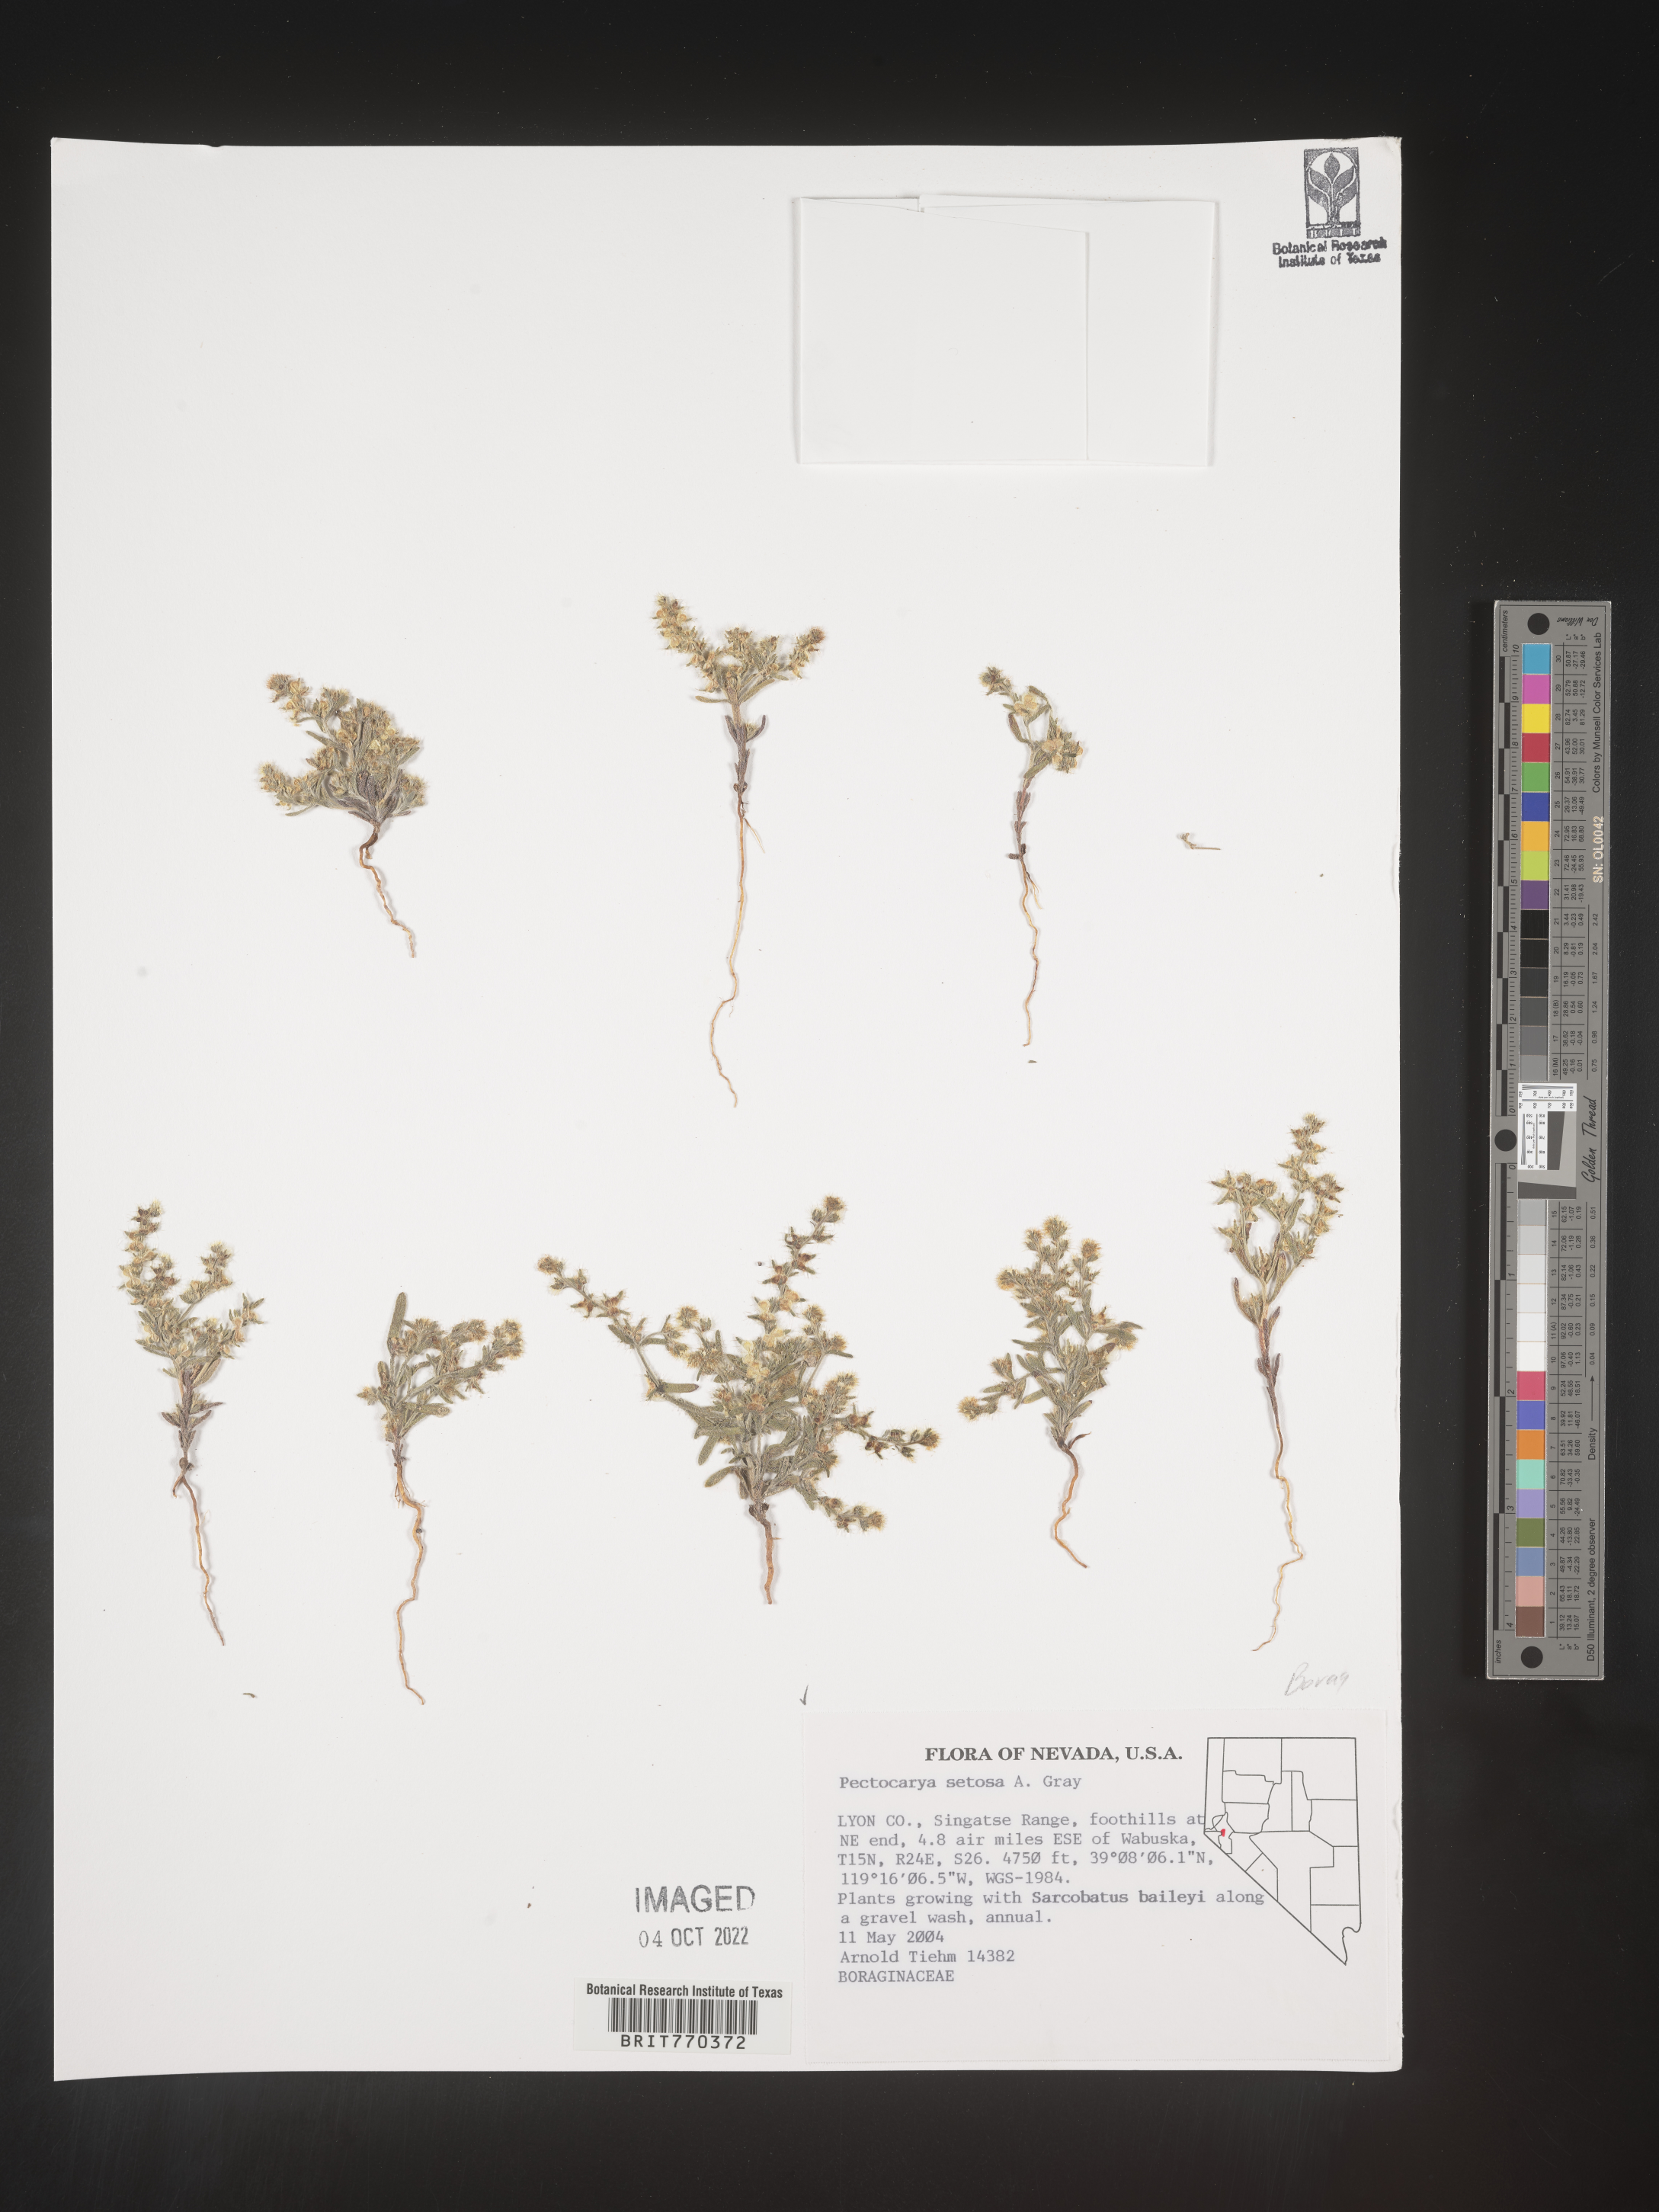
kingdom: Plantae
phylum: Tracheophyta
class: Magnoliopsida
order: Boraginales
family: Boraginaceae
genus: Pectocarya
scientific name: Pectocarya
